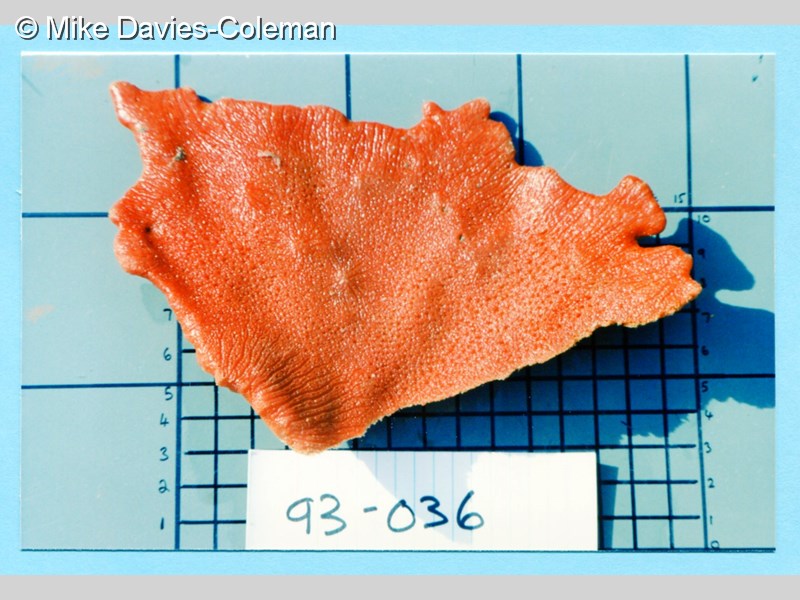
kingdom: Animalia
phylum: Porifera
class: Demospongiae
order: Poecilosclerida
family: Isodictyidae
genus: Isodictya
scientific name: Isodictya
